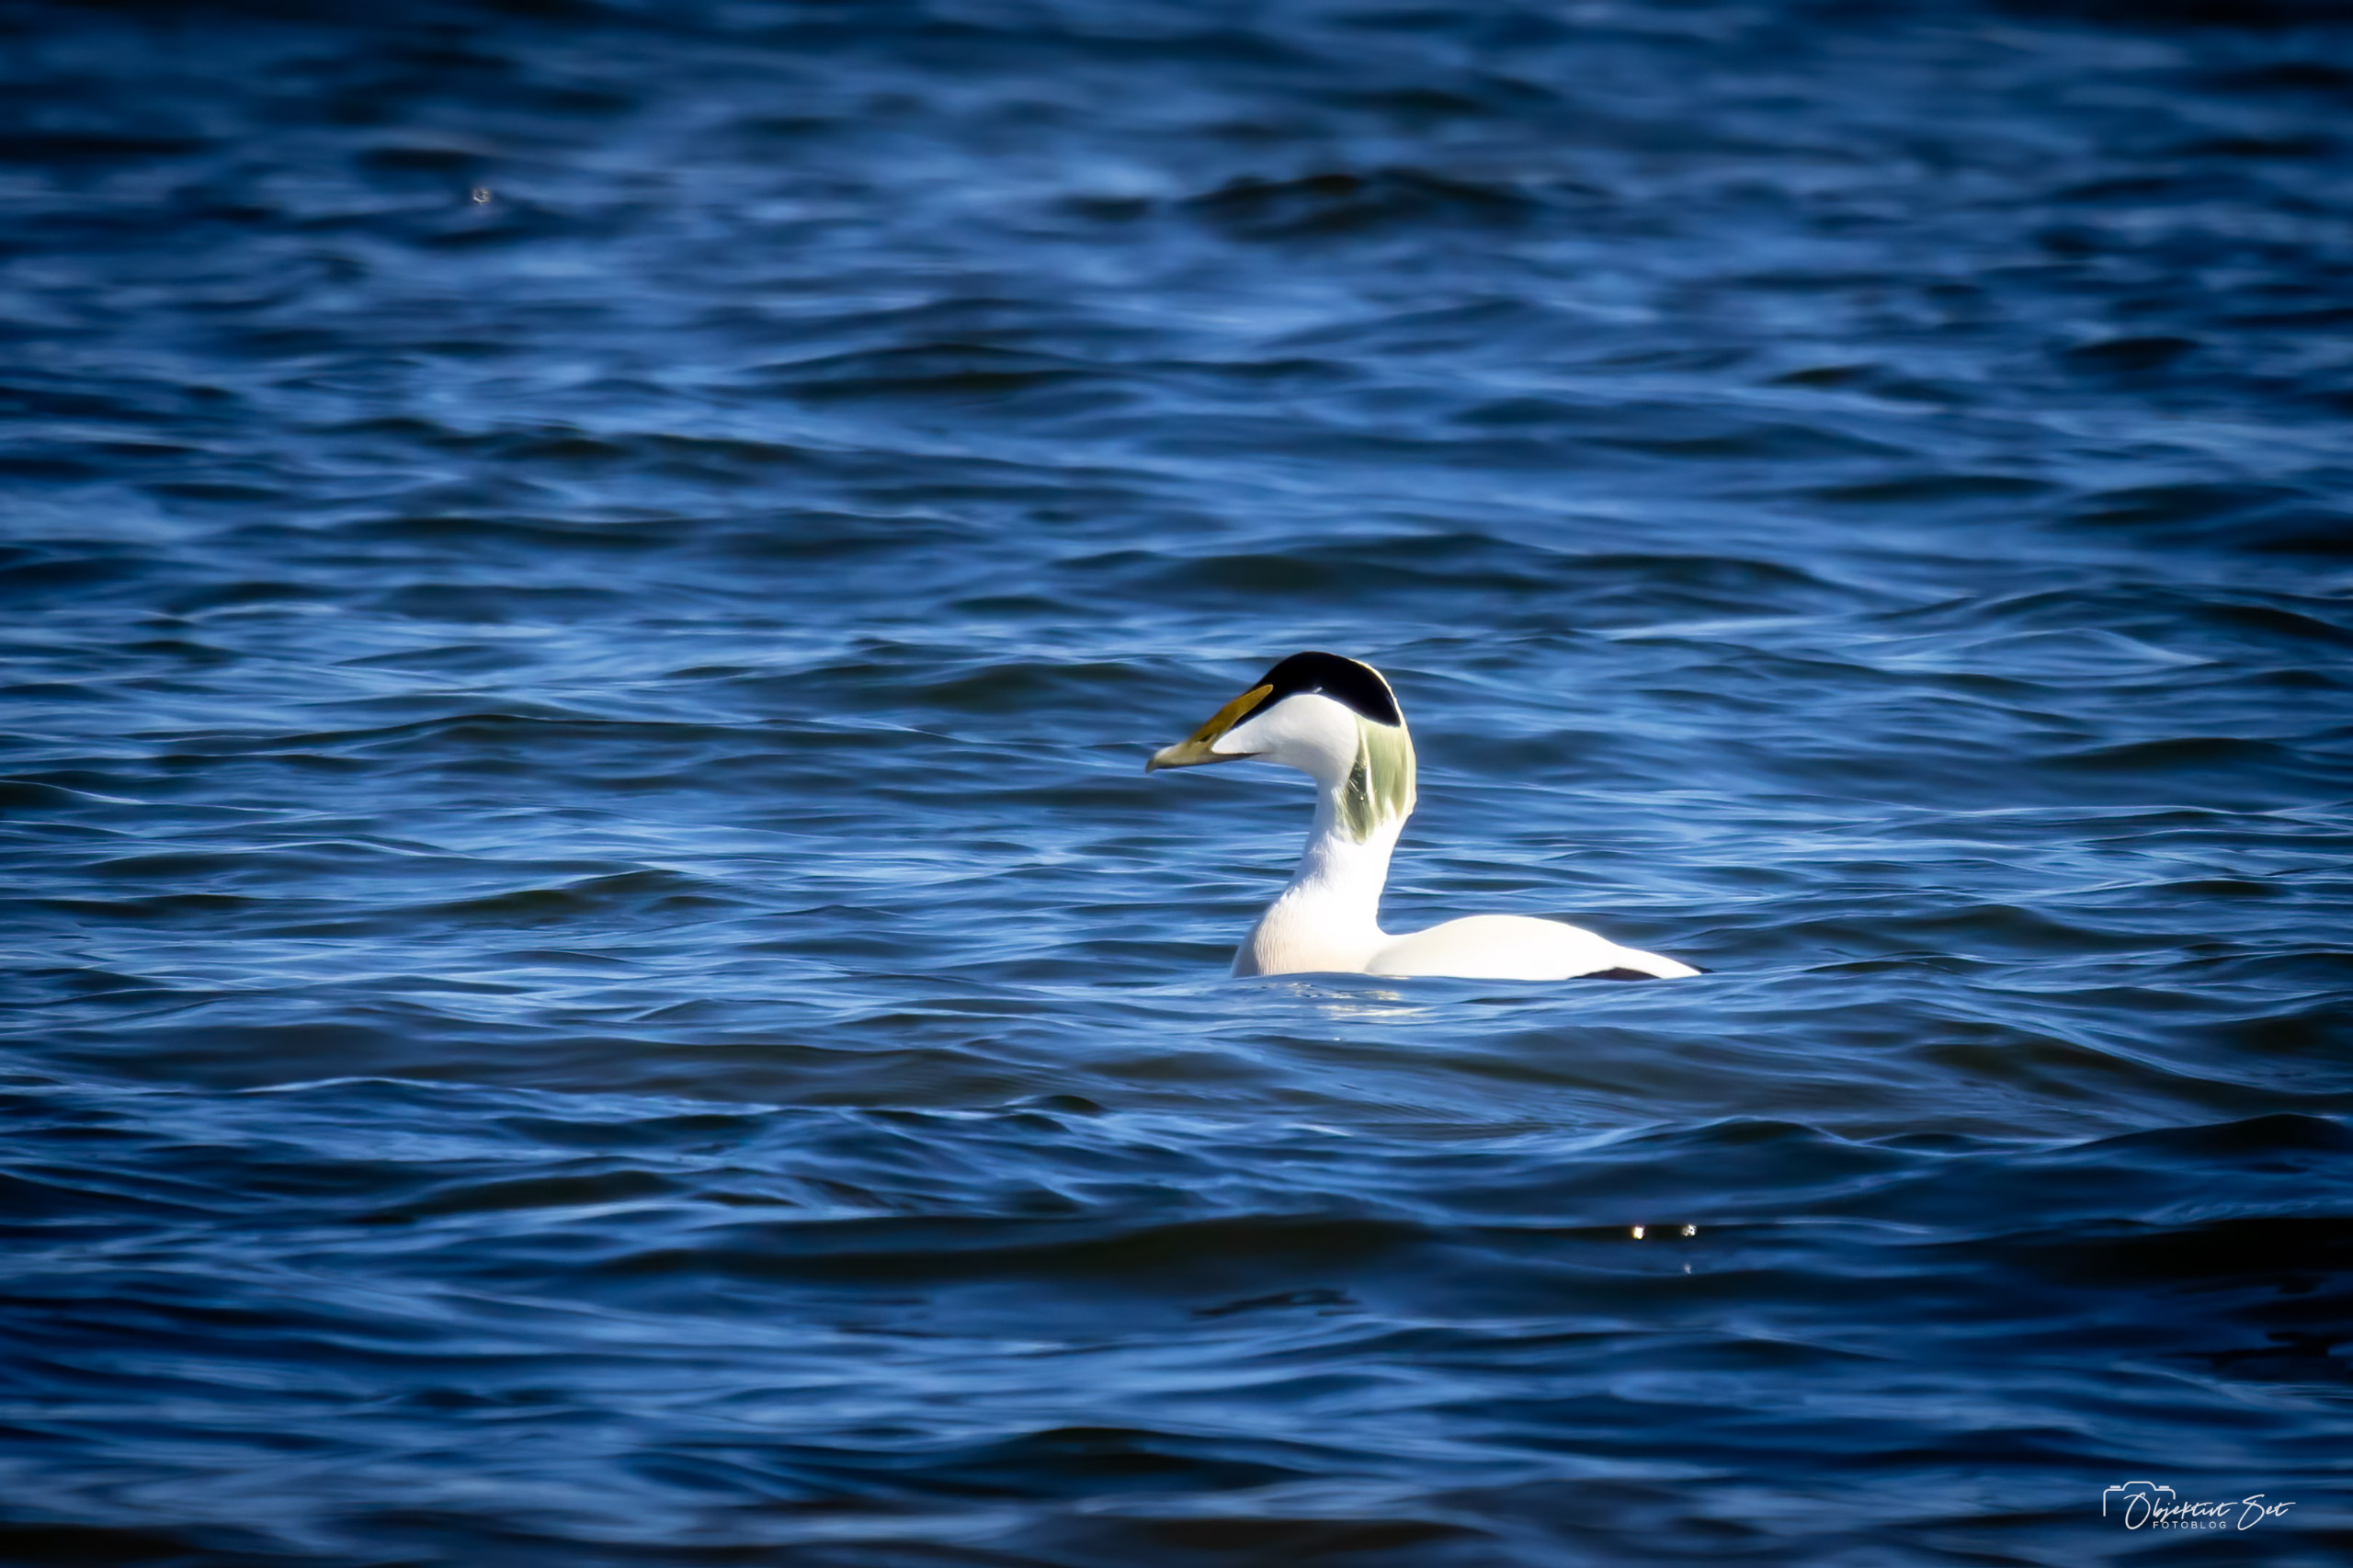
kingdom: Animalia
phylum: Chordata
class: Aves
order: Anseriformes
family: Anatidae
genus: Somateria
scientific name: Somateria mollissima
